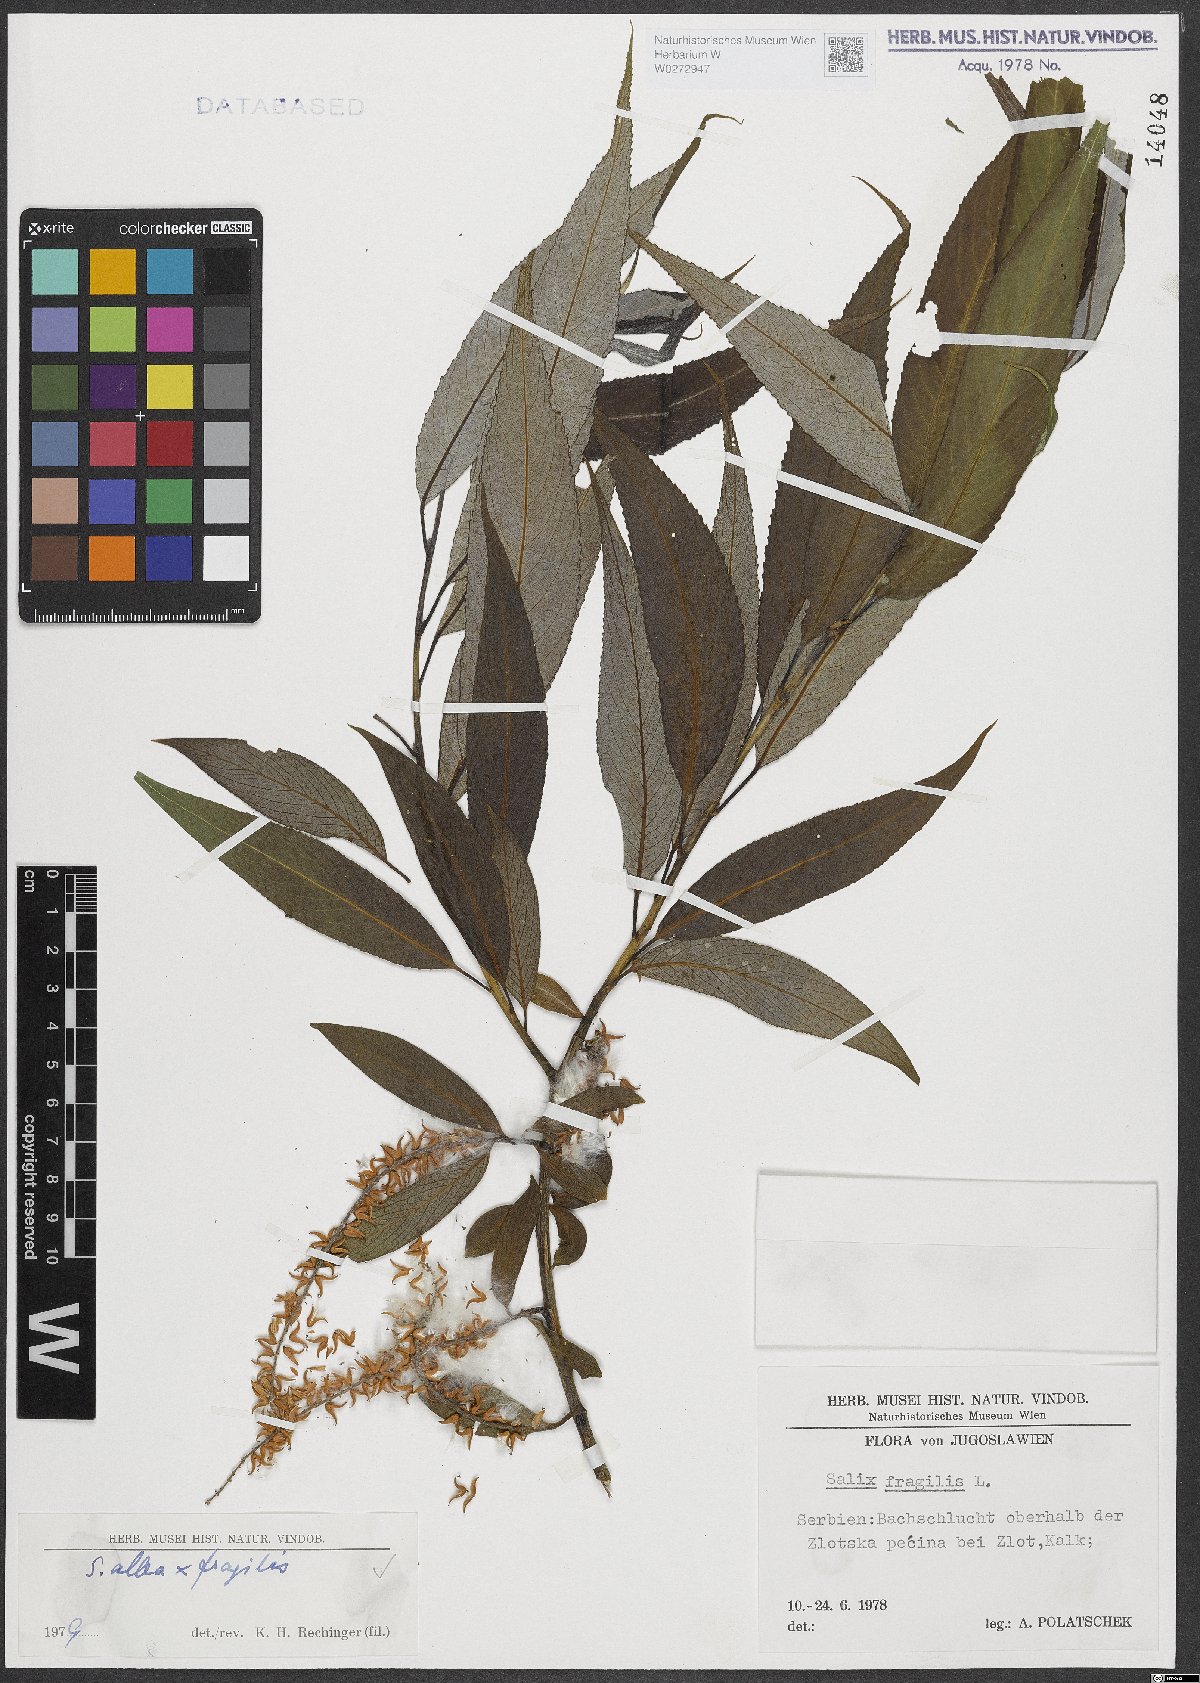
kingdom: Plantae
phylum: Tracheophyta
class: Magnoliopsida
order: Malpighiales
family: Salicaceae
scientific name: Salicaceae
